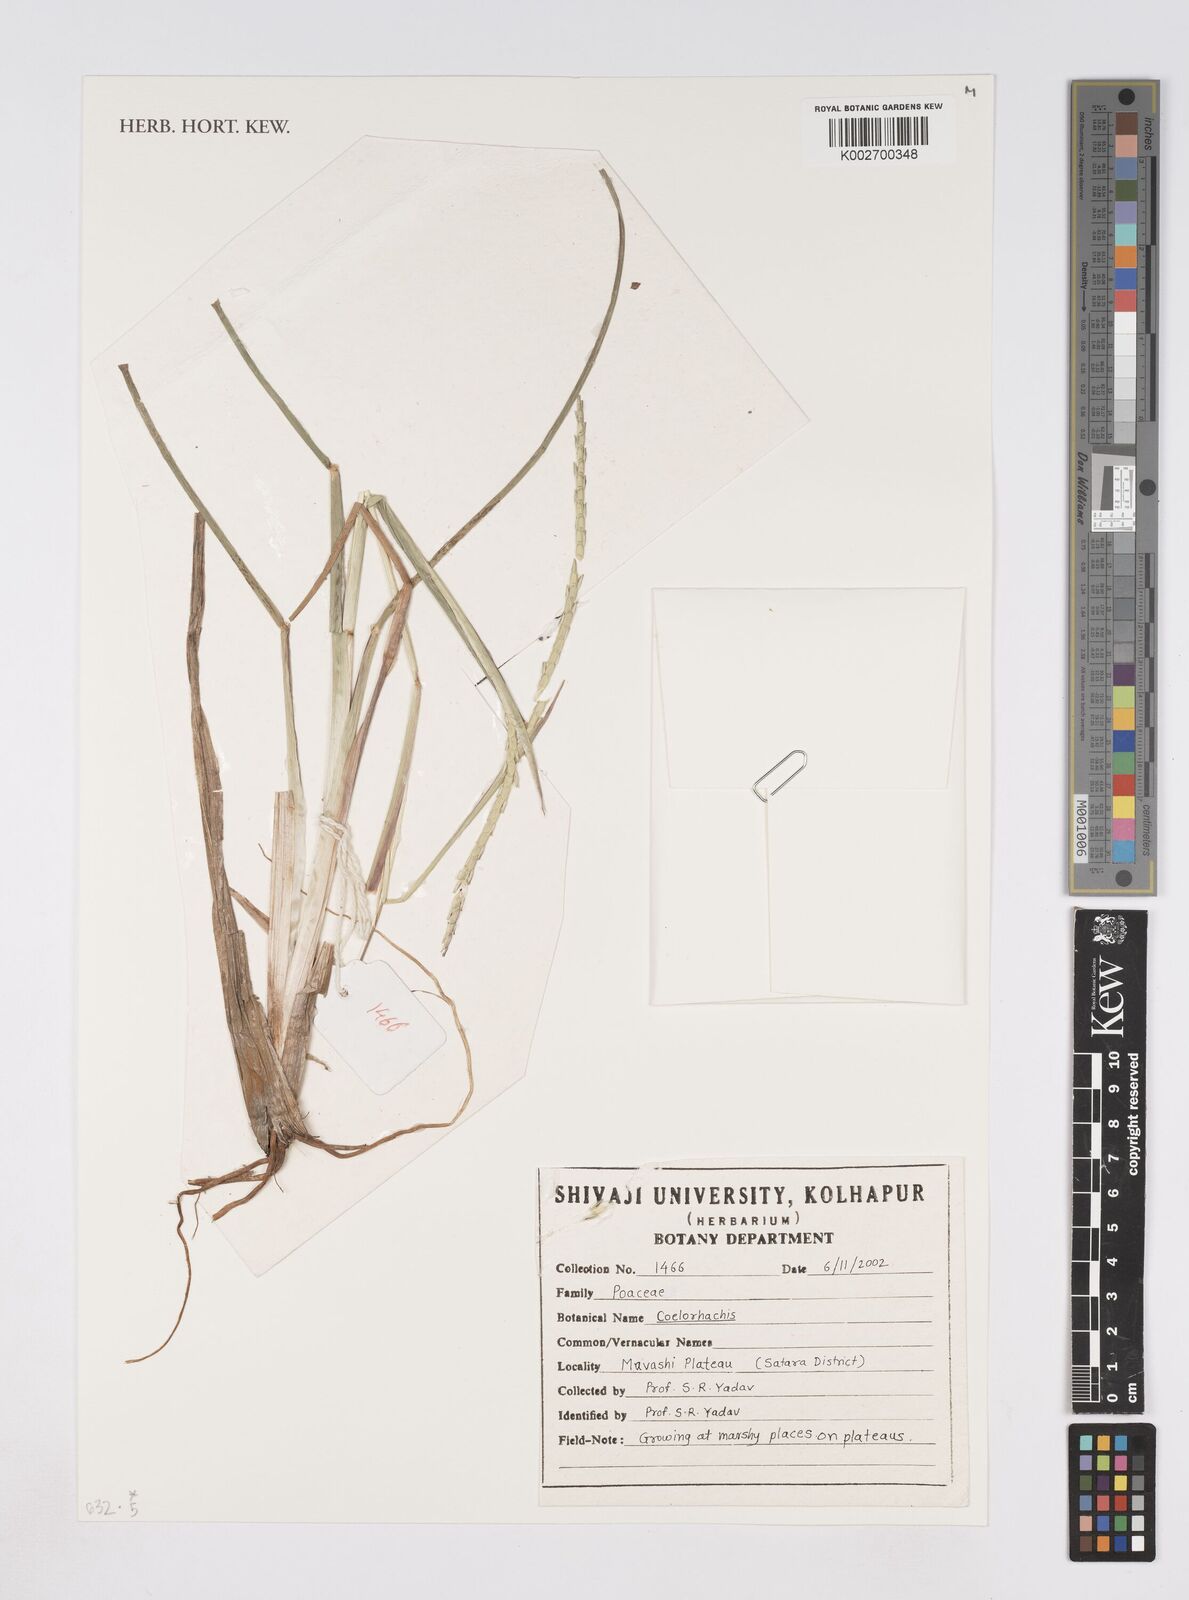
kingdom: Plantae
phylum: Tracheophyta
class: Liliopsida
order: Poales
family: Poaceae
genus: Rottboellia
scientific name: Rottboellia
